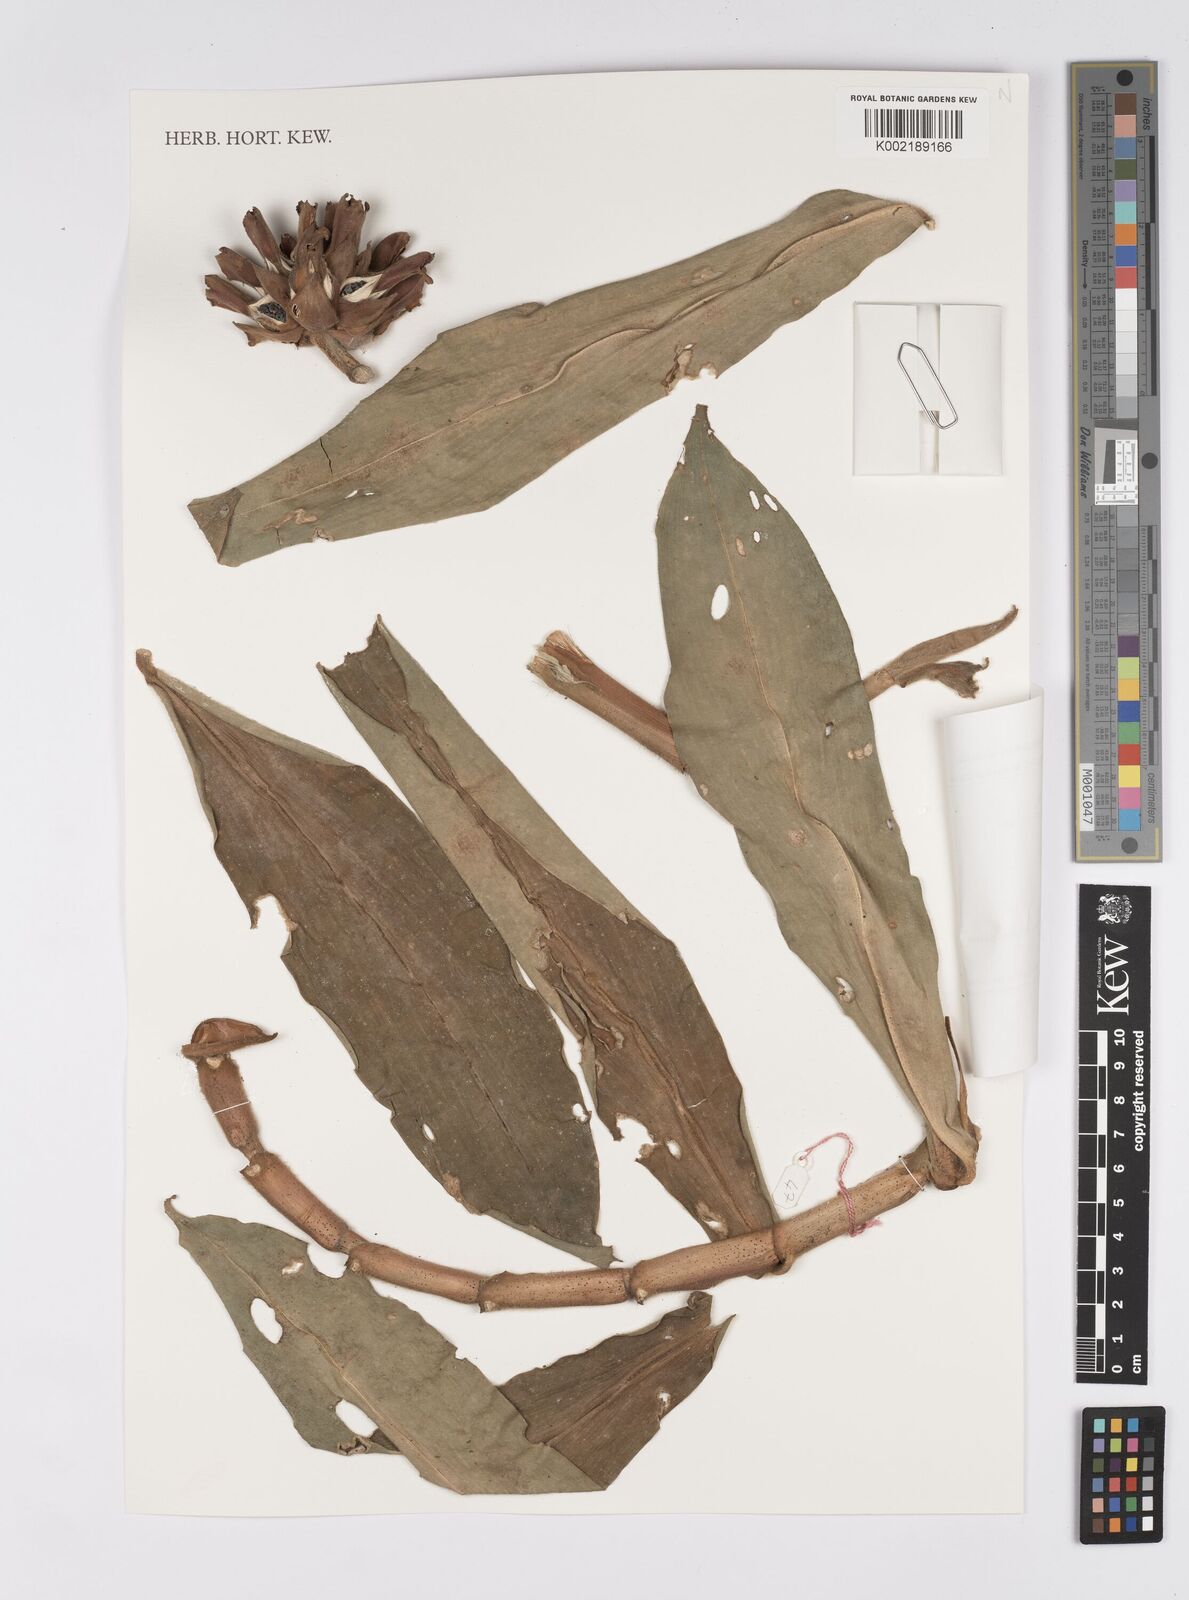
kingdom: Plantae
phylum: Tracheophyta
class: Liliopsida
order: Zingiberales
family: Costaceae
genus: Hellenia
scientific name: Hellenia speciosa
